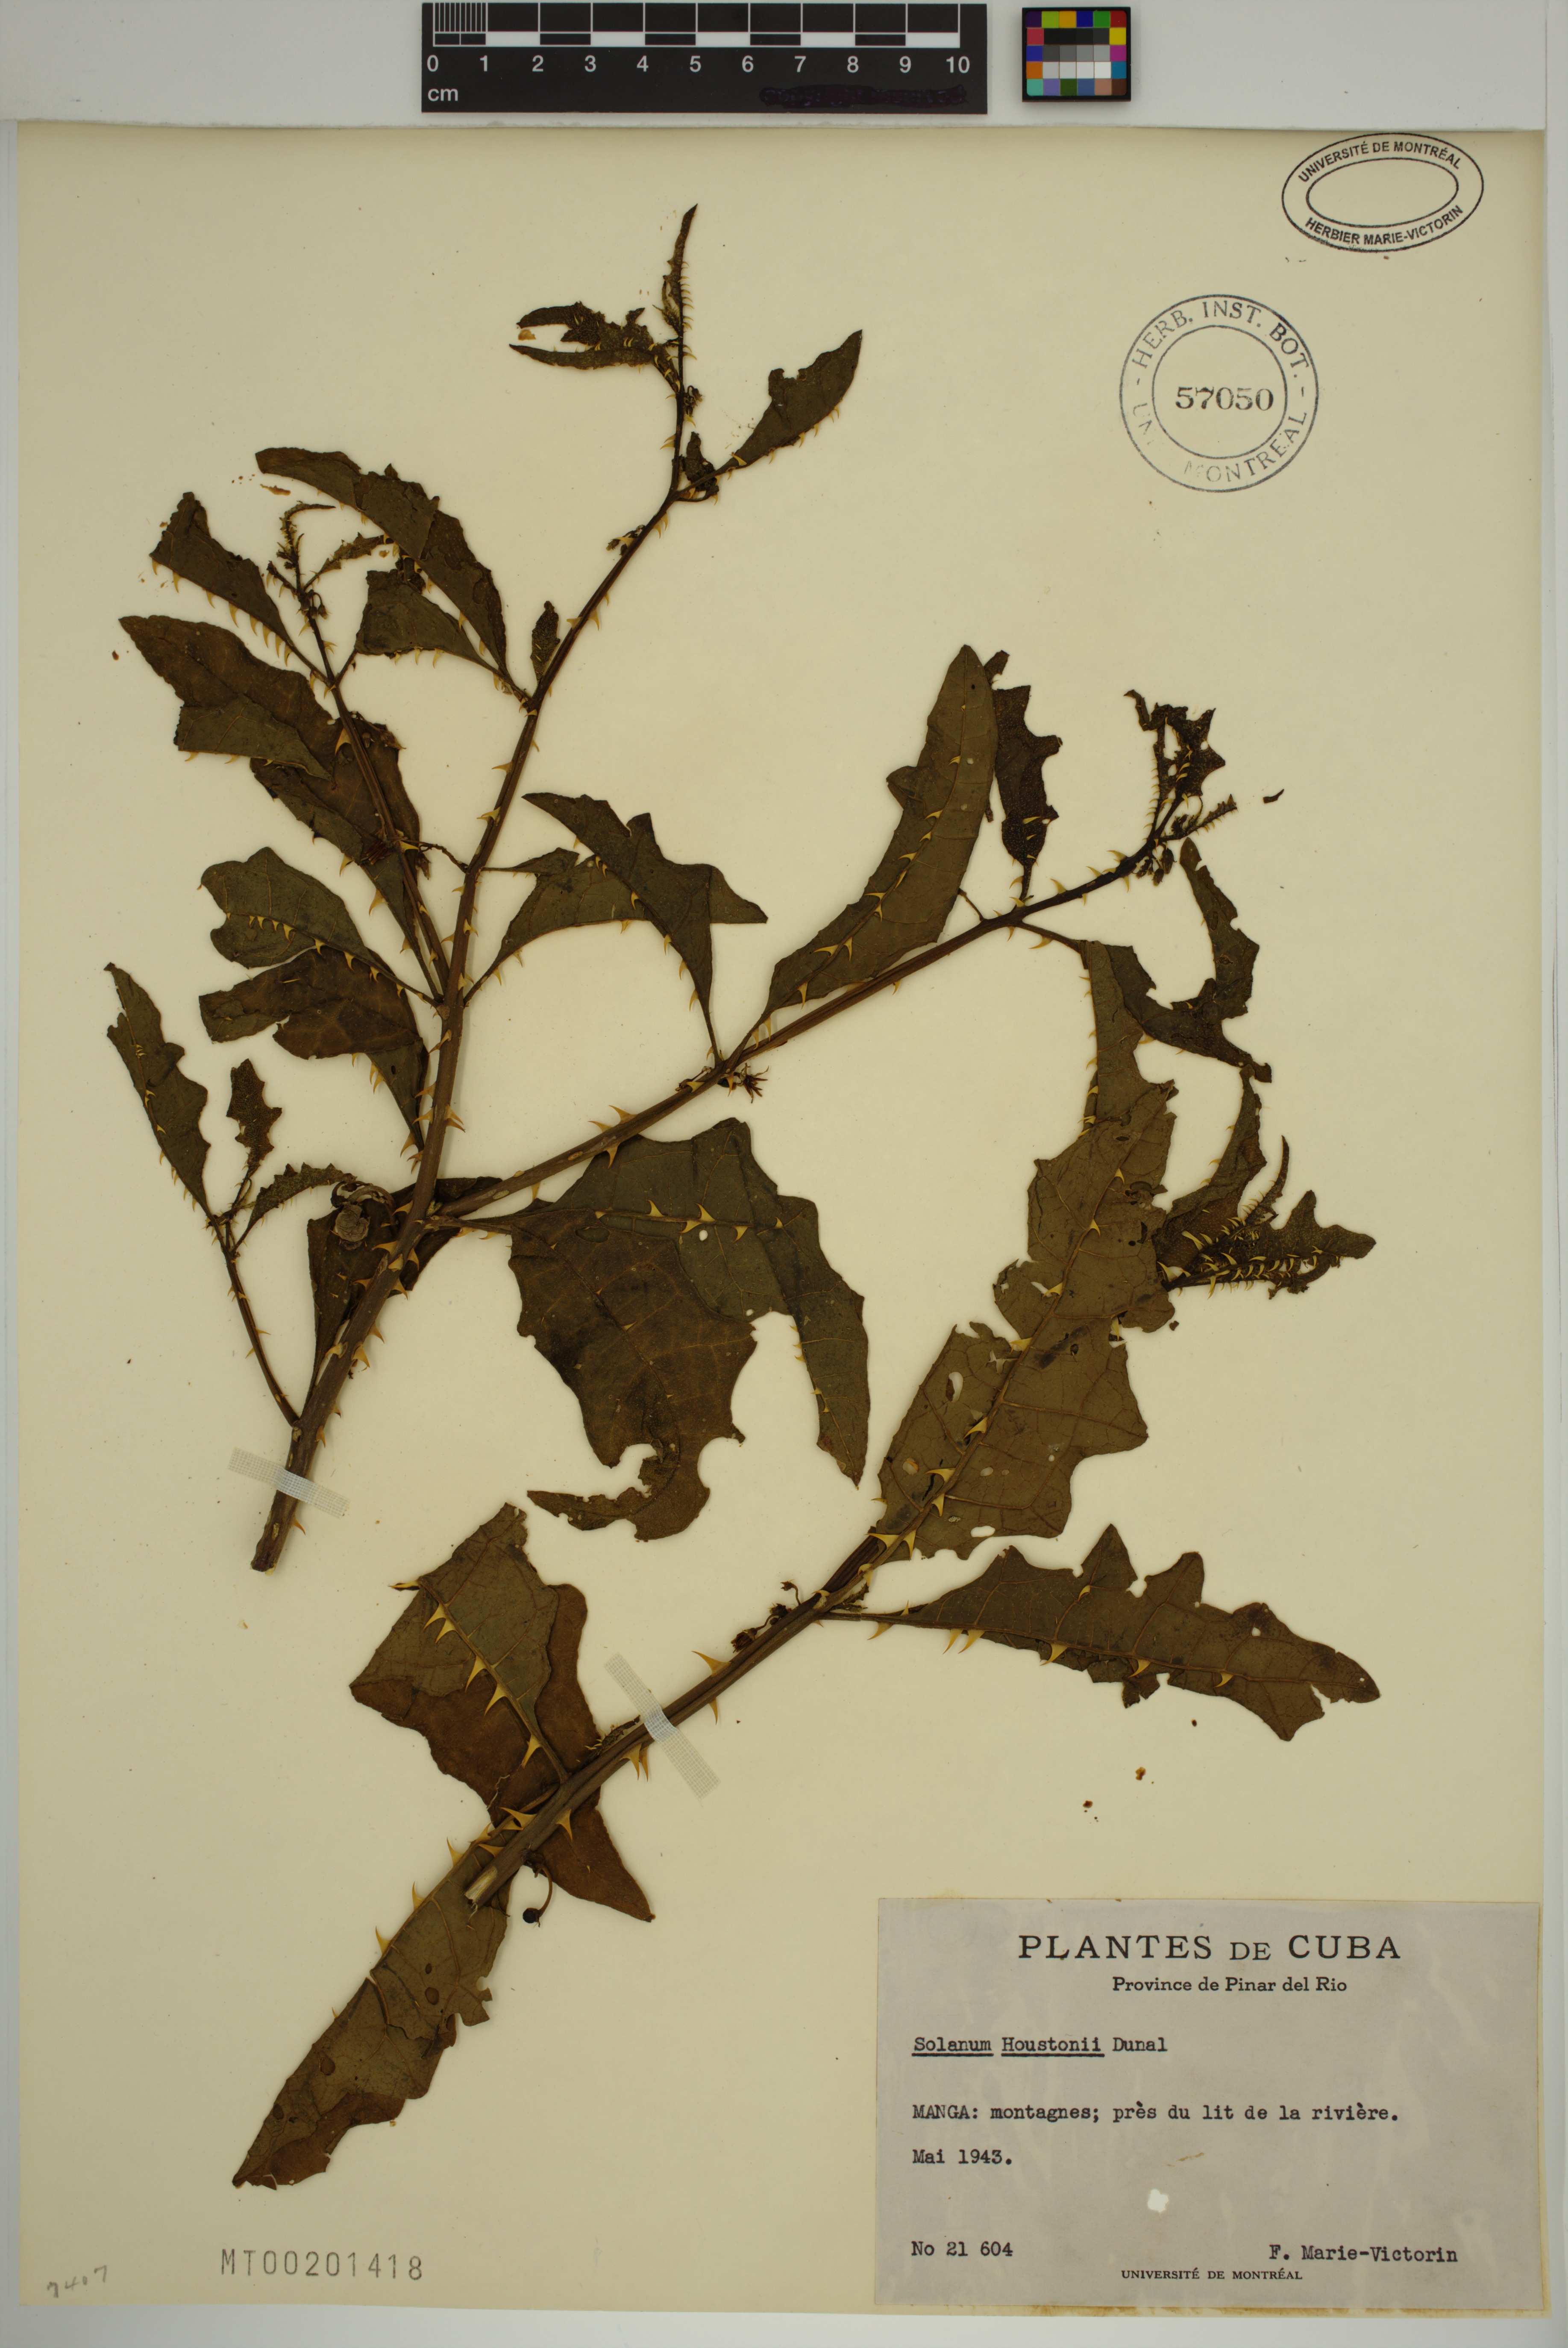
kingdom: Plantae
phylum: Tracheophyta
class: Magnoliopsida
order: Solanales
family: Solanaceae
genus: Solanum
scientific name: Solanum tampicense
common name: Scrambling nightshade
